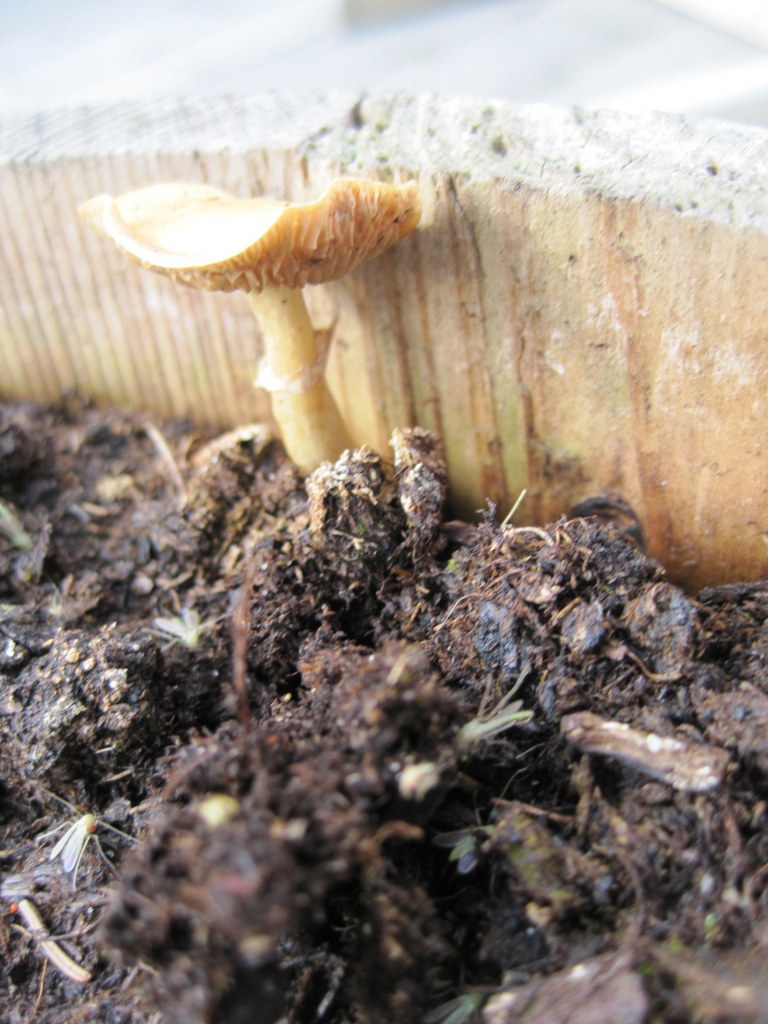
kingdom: Fungi
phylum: Basidiomycota
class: Agaricomycetes
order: Agaricales
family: Strophariaceae
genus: Agrocybe
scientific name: Agrocybe praecox
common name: tidlig agerhat
